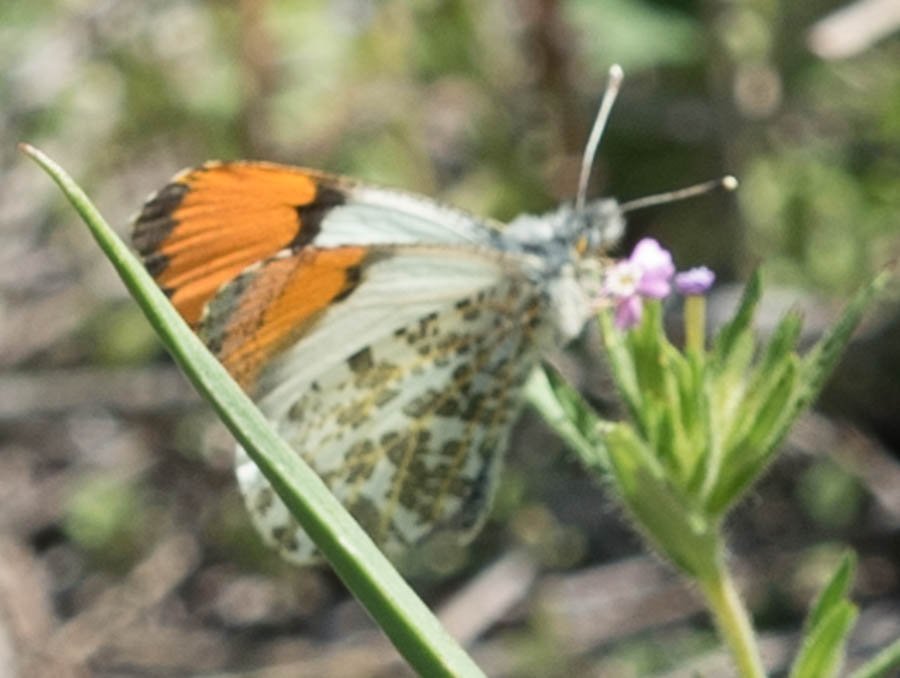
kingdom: Animalia
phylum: Arthropoda
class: Insecta
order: Lepidoptera
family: Pieridae
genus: Anthocharis
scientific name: Anthocharis sara
